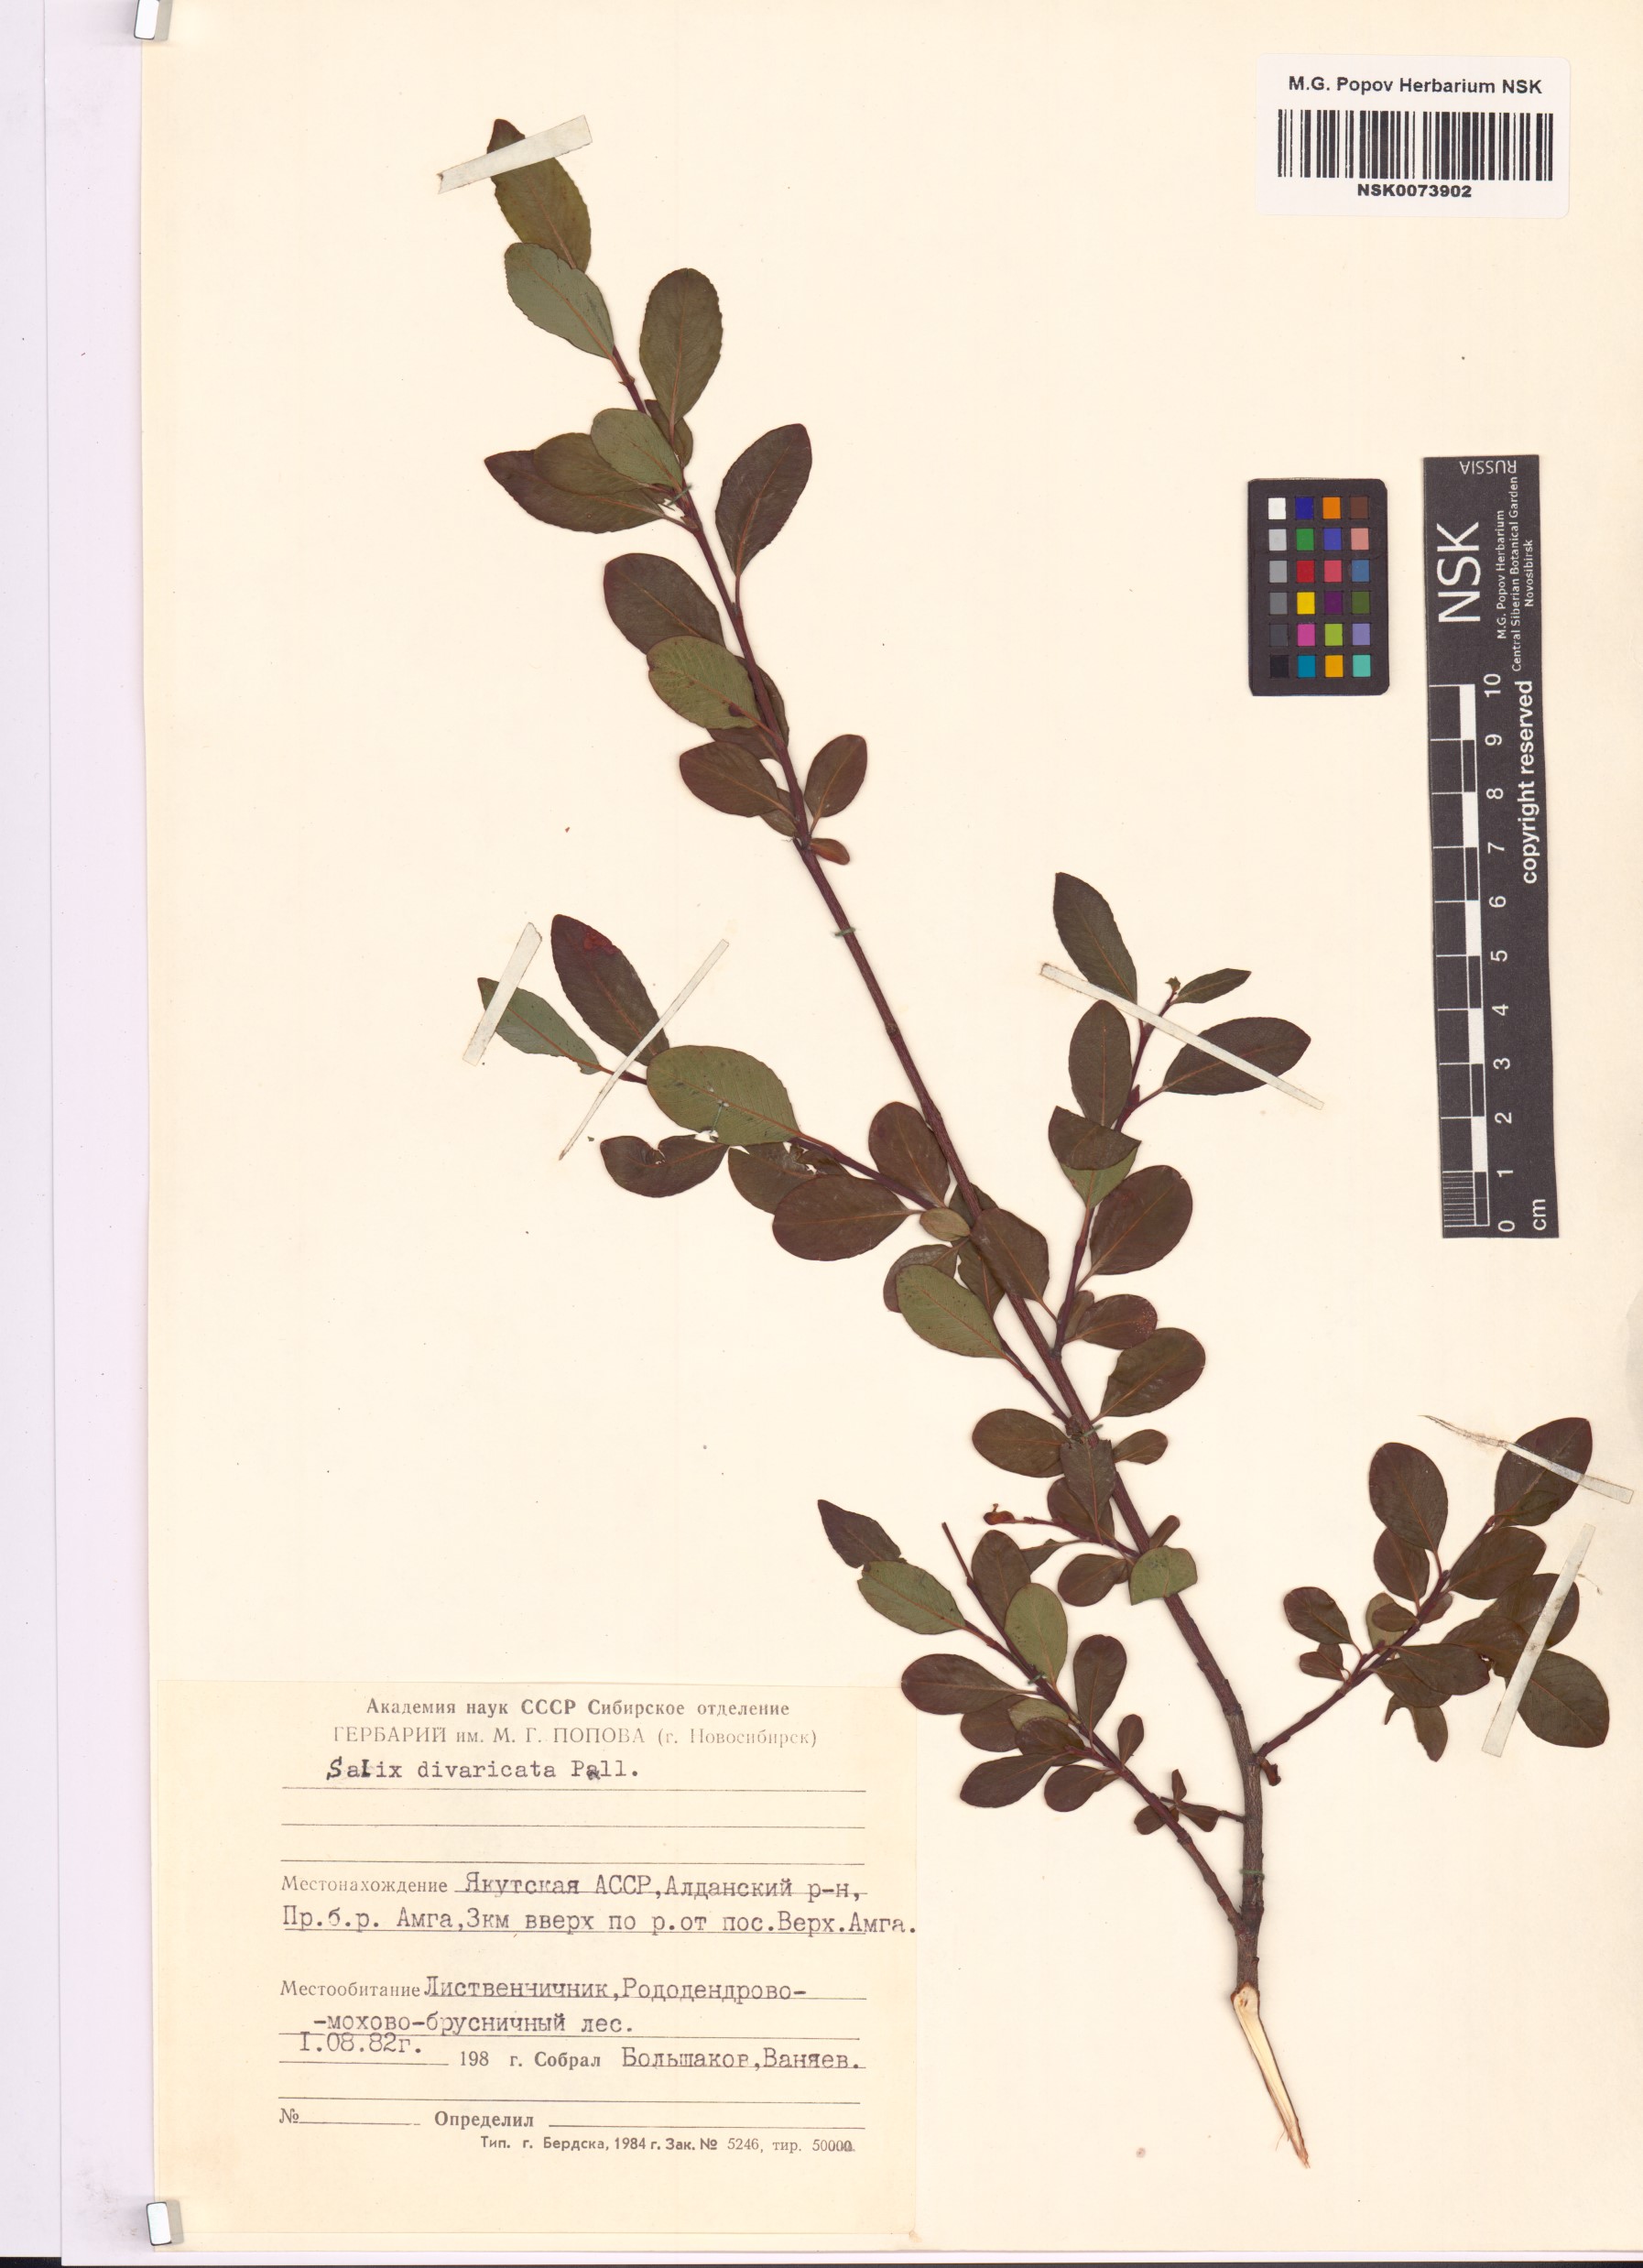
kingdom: Plantae
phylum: Tracheophyta
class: Magnoliopsida
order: Malpighiales
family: Salicaceae
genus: Salix
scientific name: Salix divaricata
